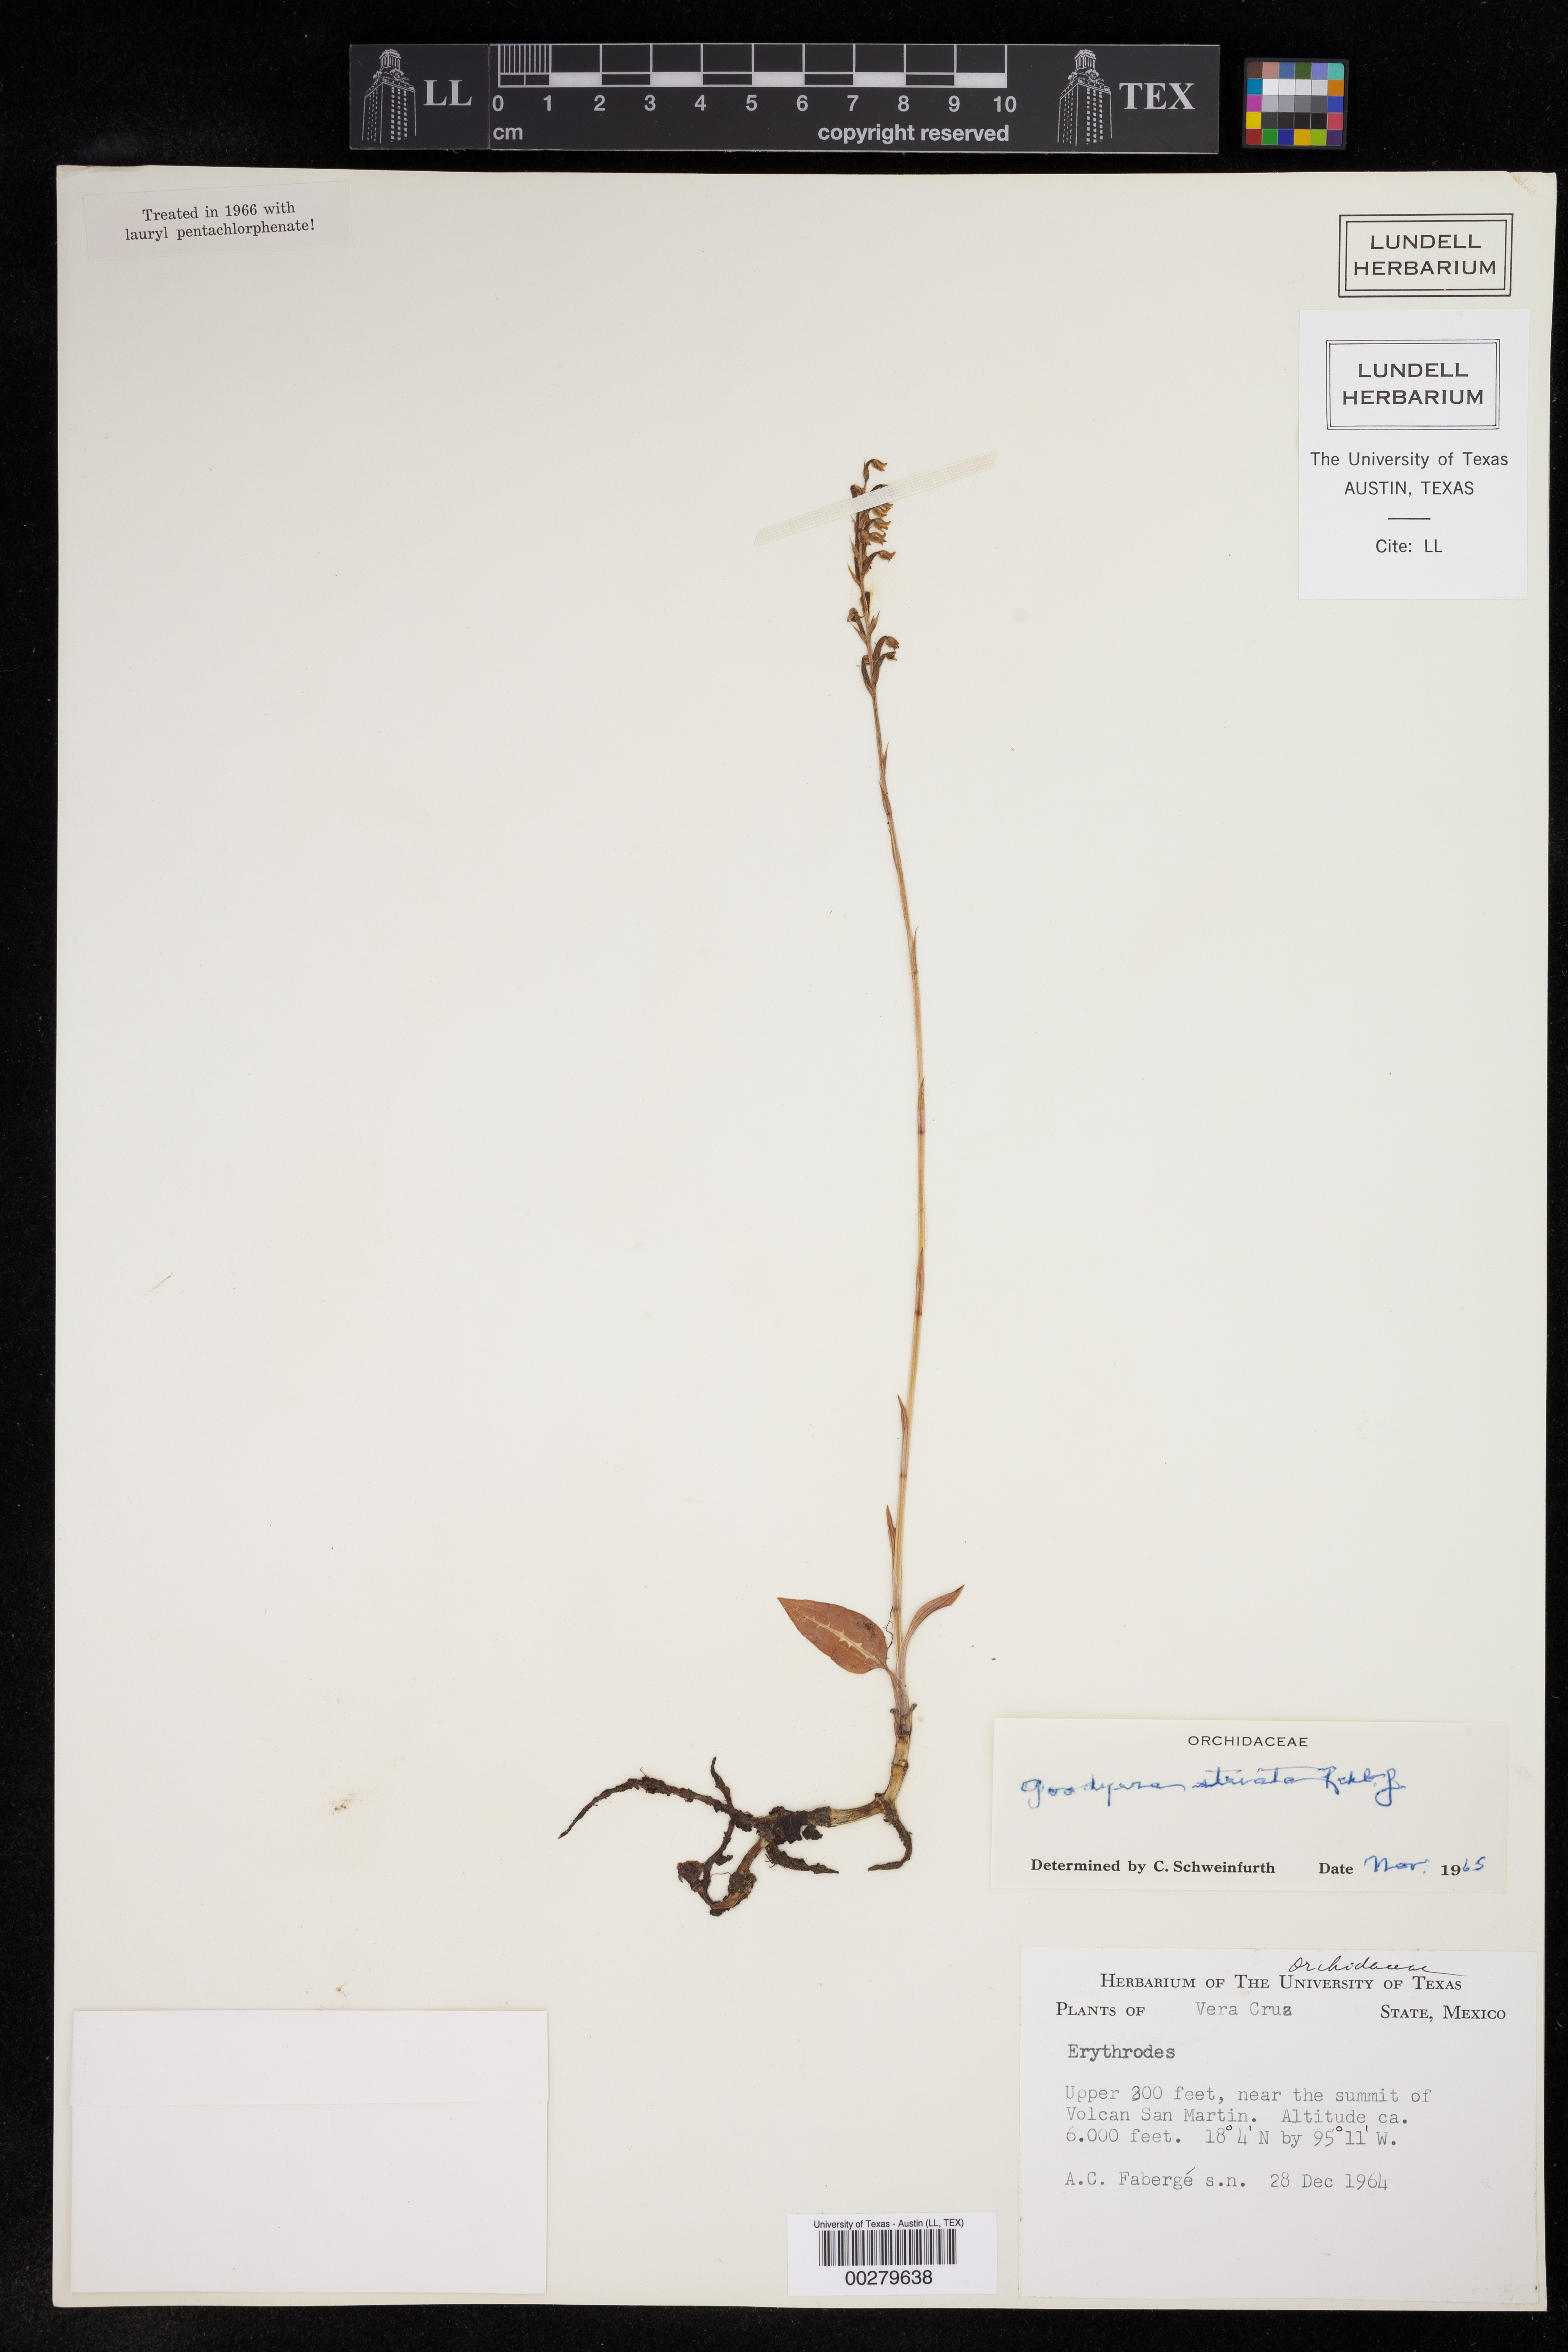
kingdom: Plantae
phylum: Tracheophyta
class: Liliopsida
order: Asparagales
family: Orchidaceae
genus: Goodyera
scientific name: Goodyera striata
